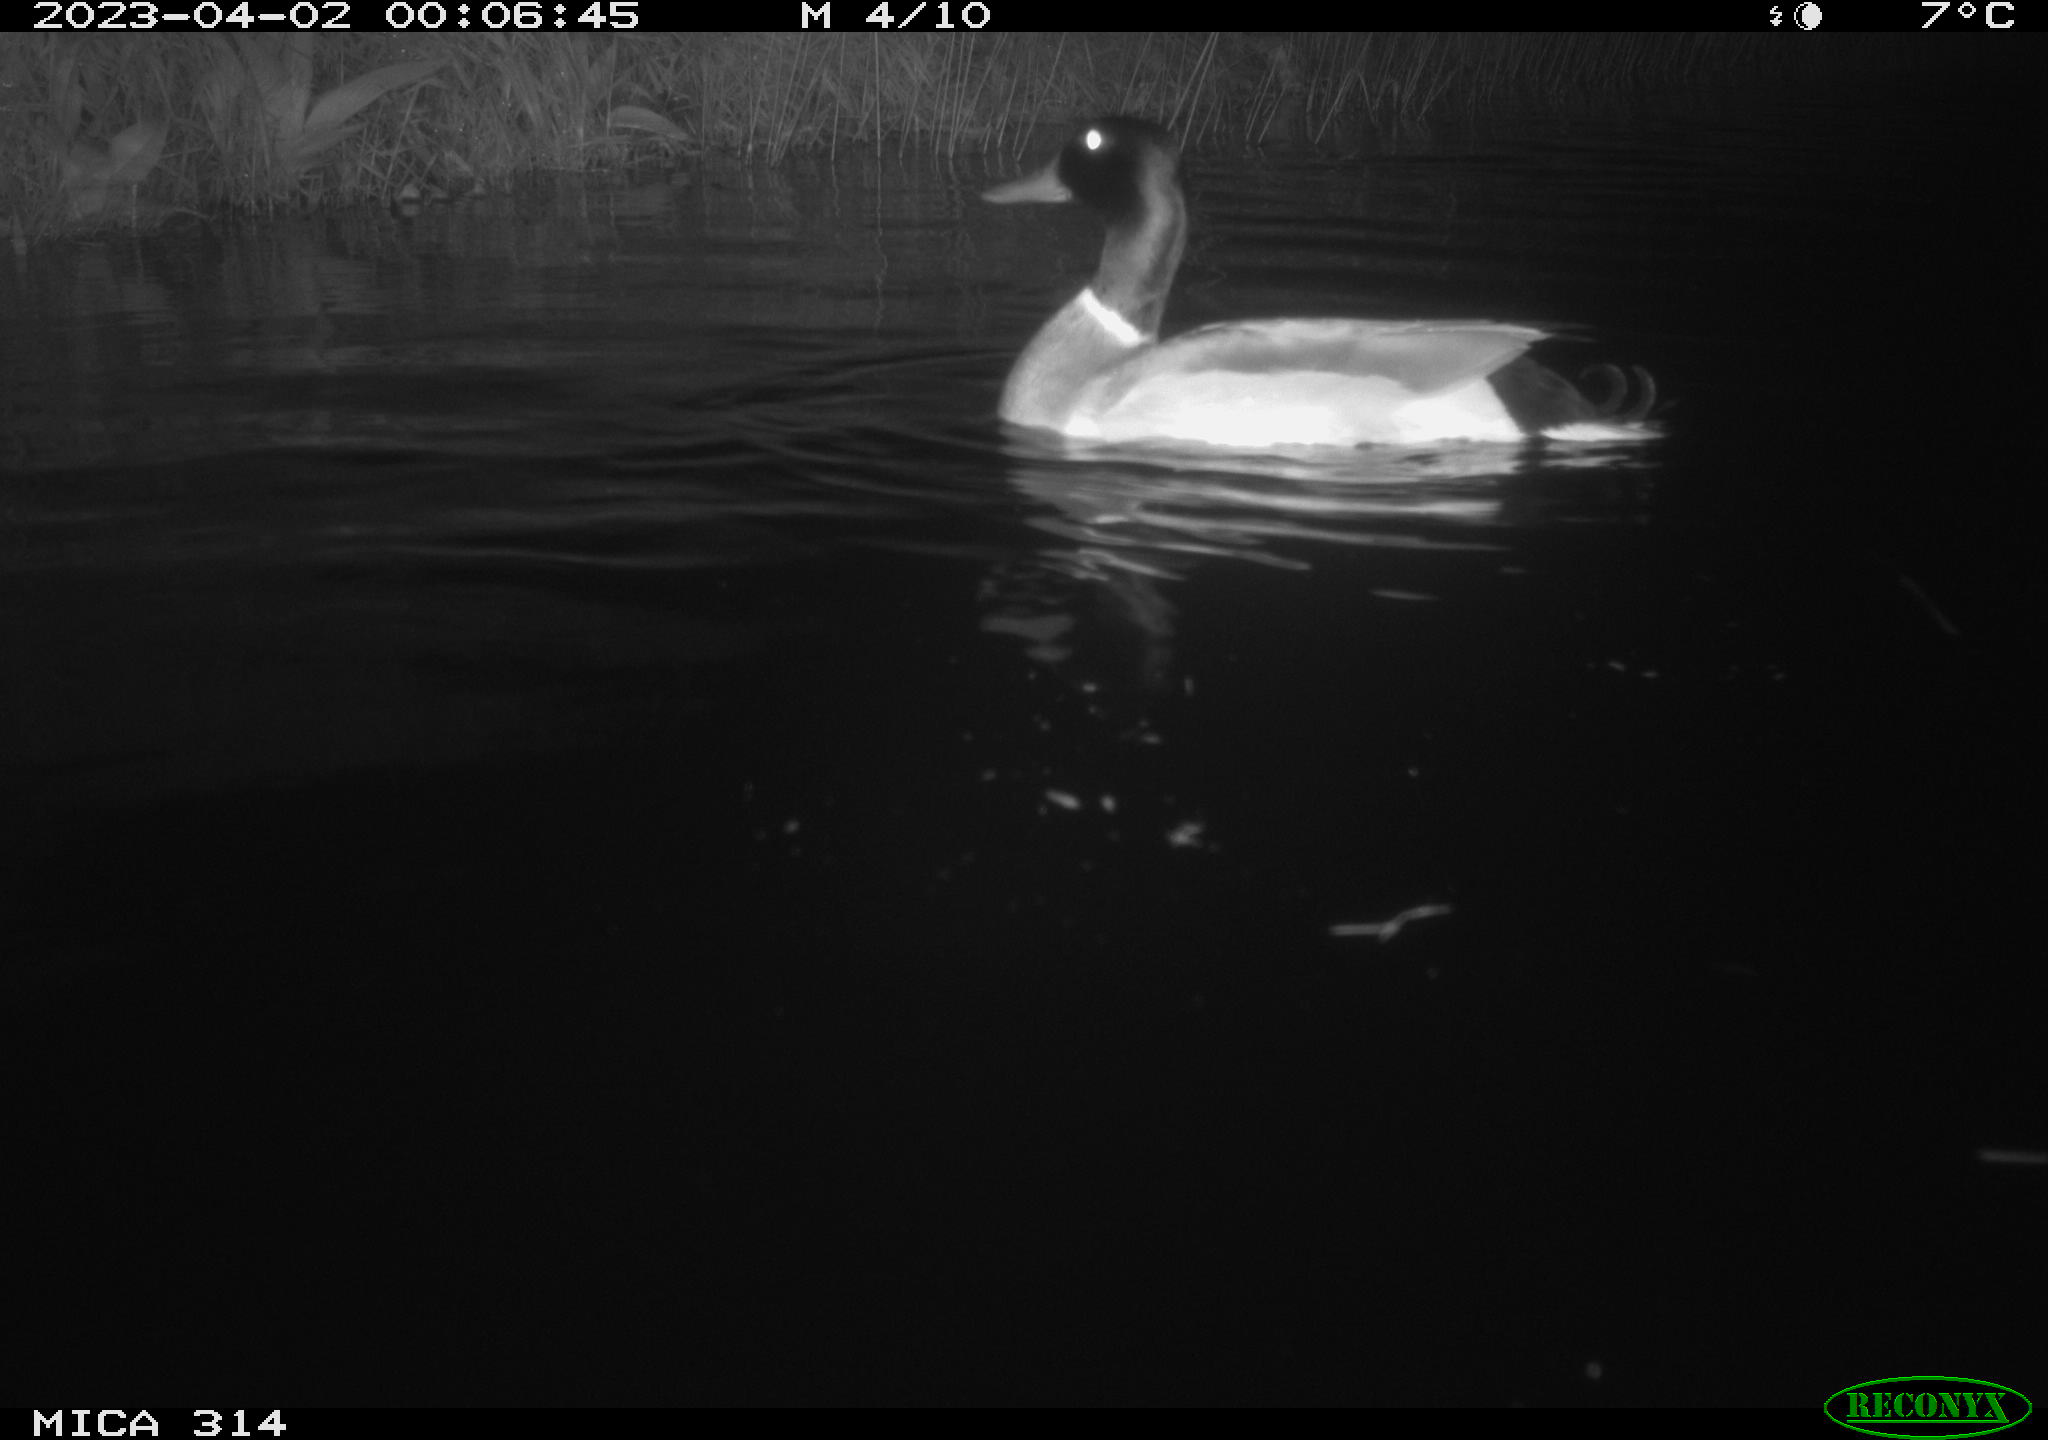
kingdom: Animalia
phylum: Chordata
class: Aves
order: Anseriformes
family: Anatidae
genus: Anas
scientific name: Anas
